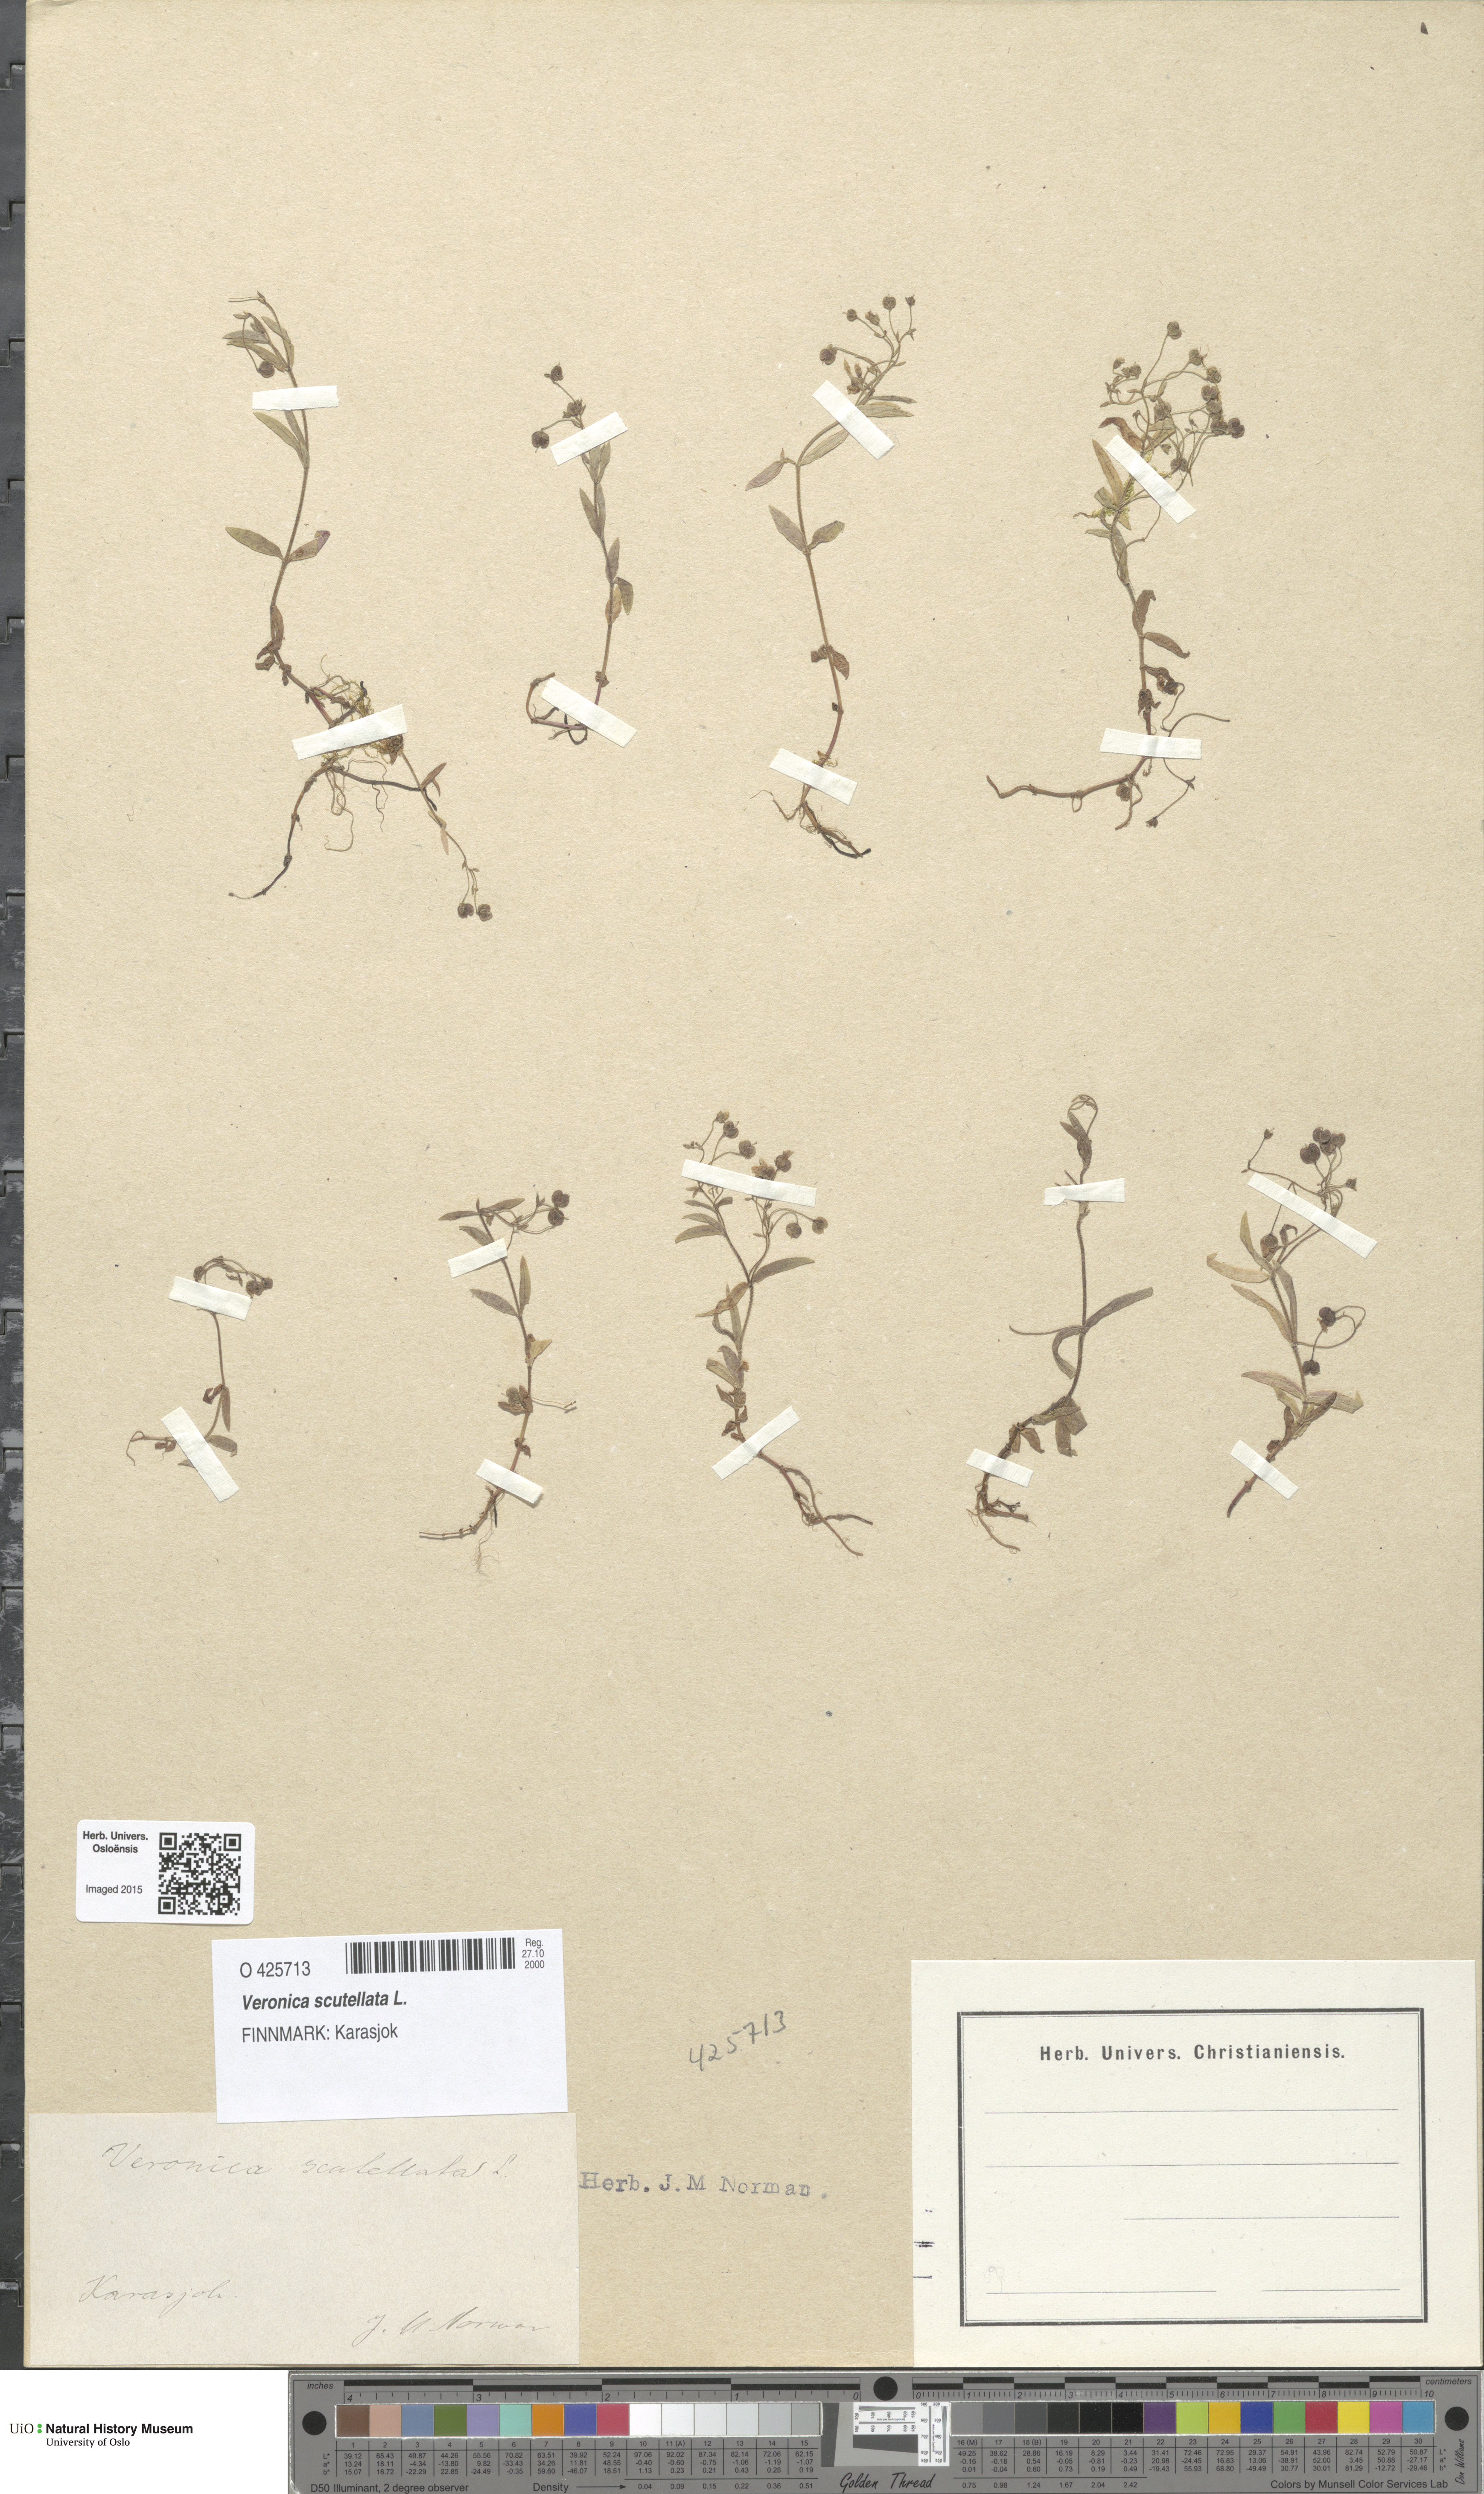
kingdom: Plantae
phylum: Tracheophyta
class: Magnoliopsida
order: Lamiales
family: Plantaginaceae
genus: Veronica
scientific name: Veronica scutellata
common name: Marsh speedwell
